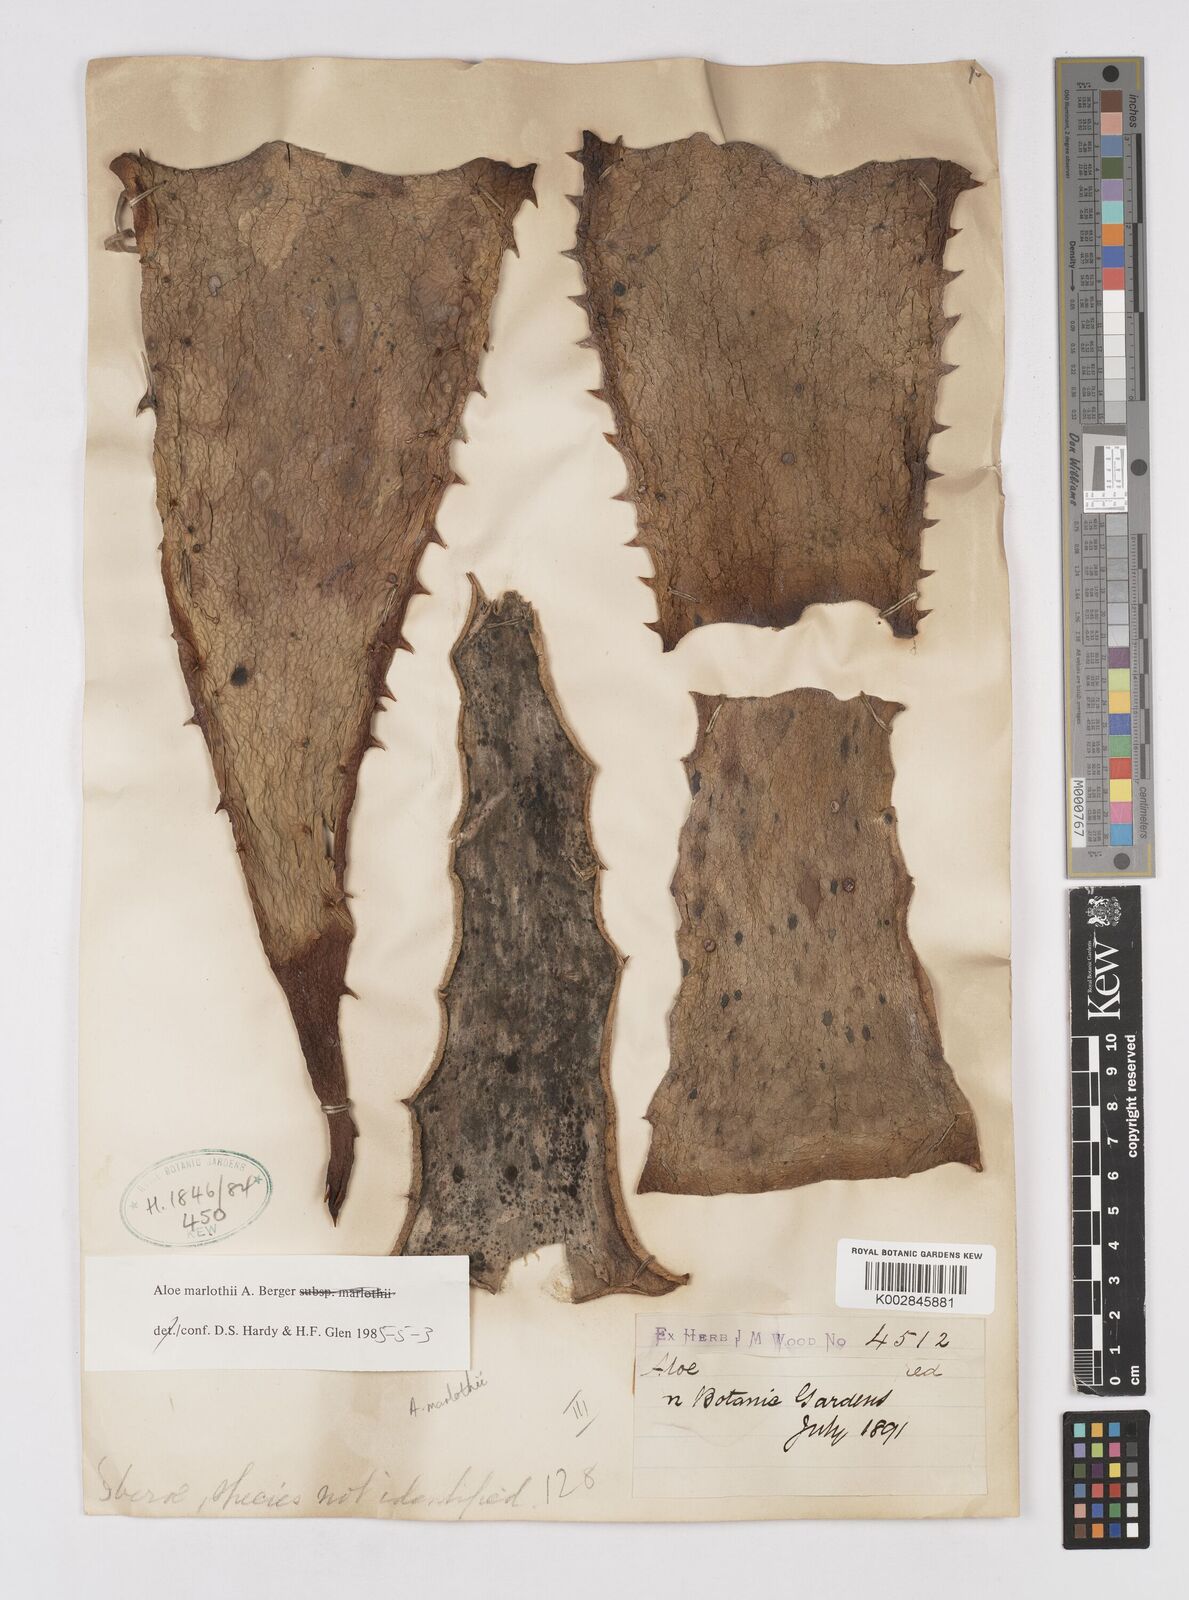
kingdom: Plantae
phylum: Tracheophyta
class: Liliopsida
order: Asparagales
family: Asphodelaceae
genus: Aloe
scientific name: Aloe marlothii
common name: Flat-flowered aloe
